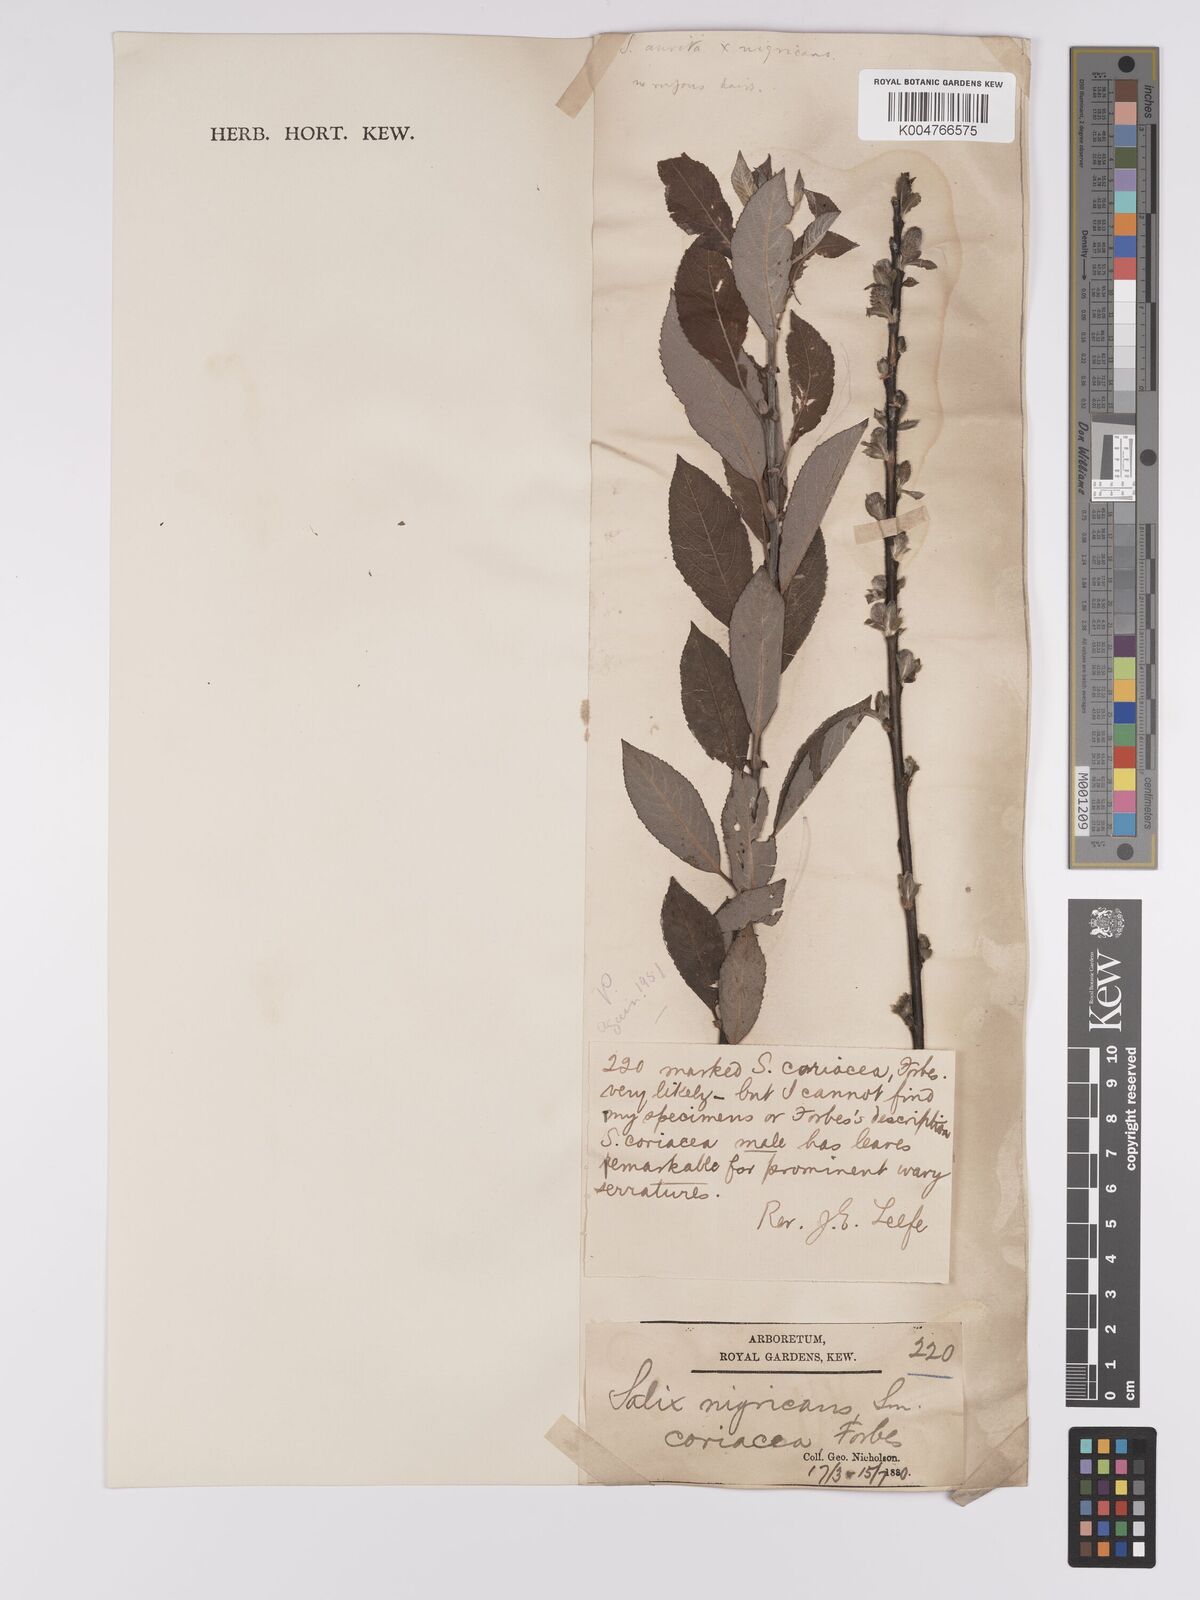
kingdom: Plantae
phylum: Tracheophyta
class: Magnoliopsida
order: Malpighiales
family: Salicaceae
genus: Salix
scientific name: Salix
